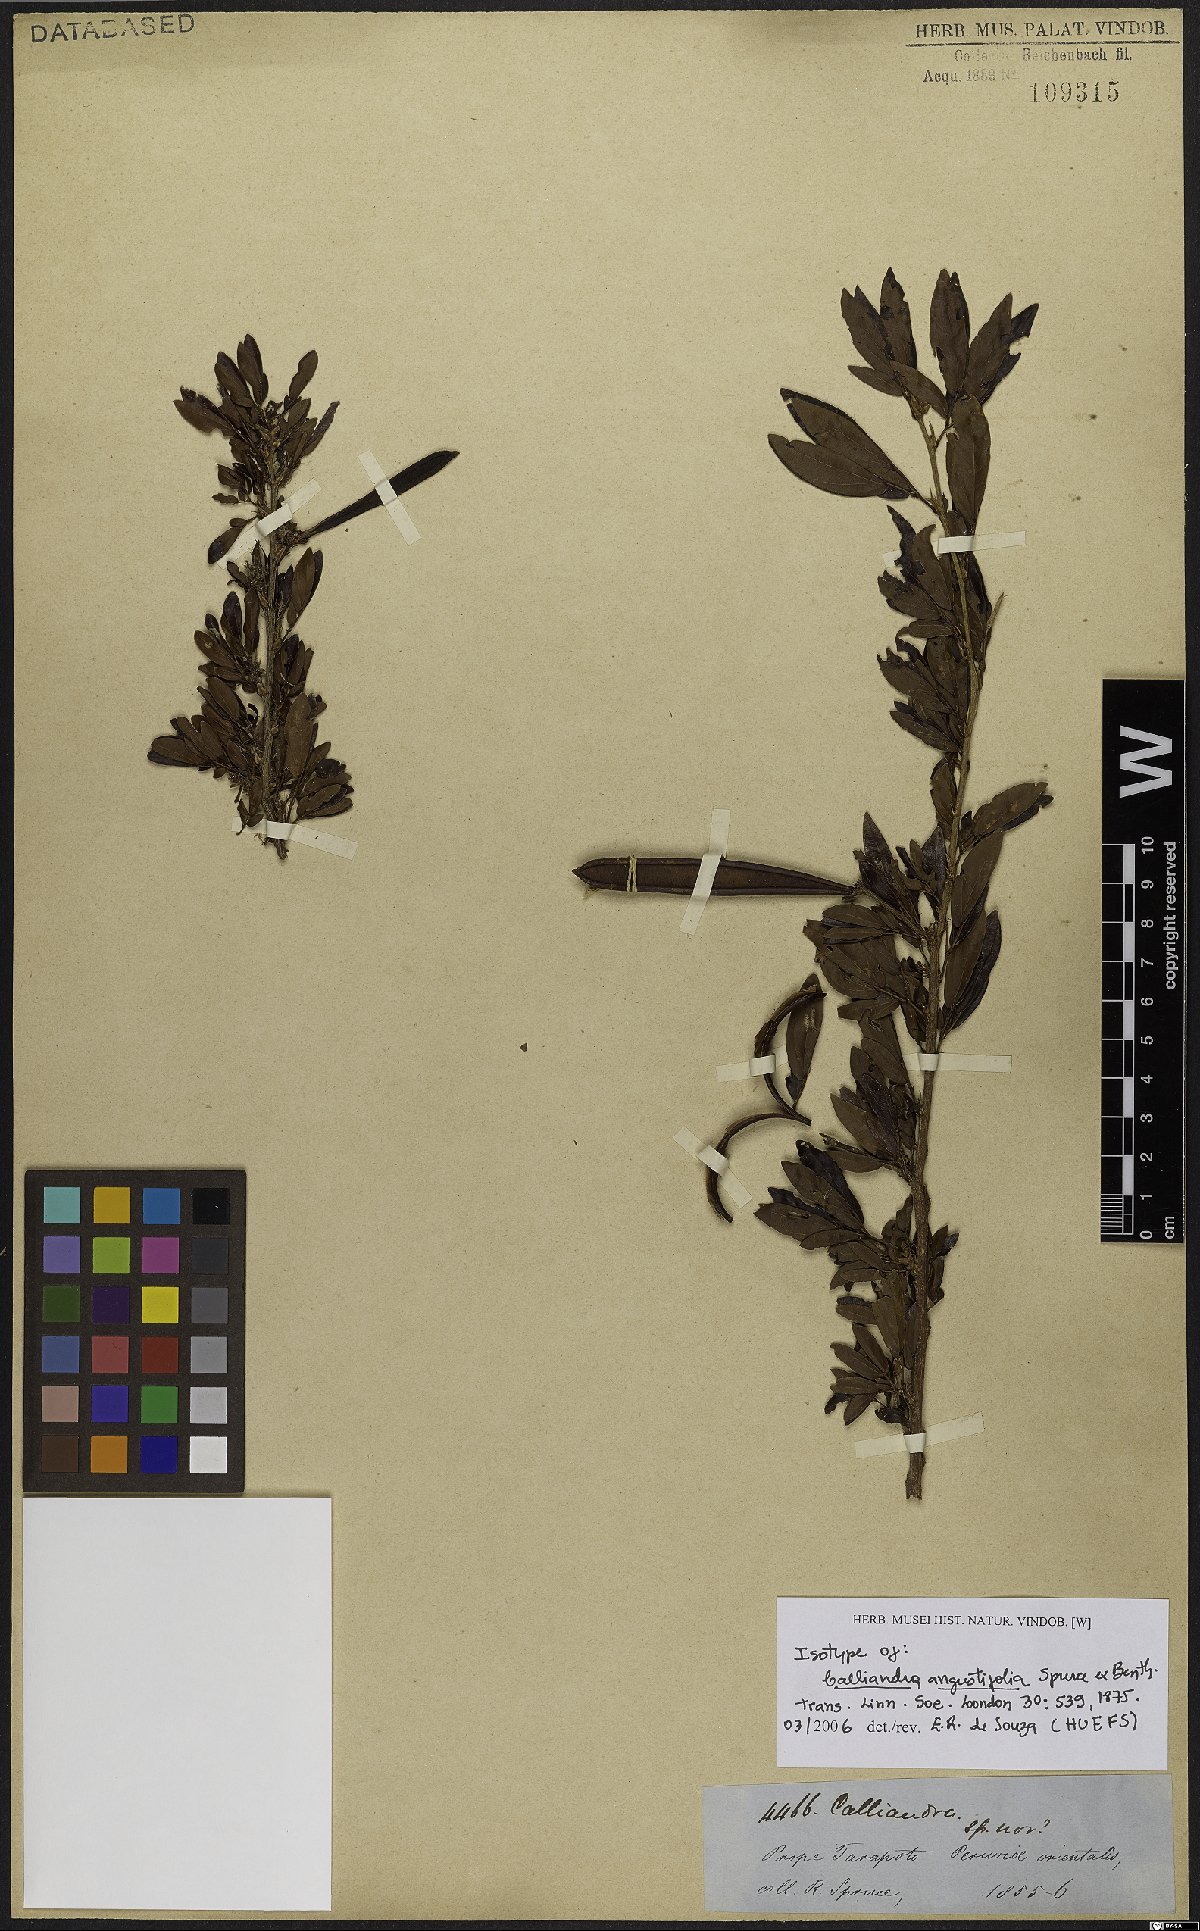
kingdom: Plantae
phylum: Tracheophyta
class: Magnoliopsida
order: Fabales
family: Fabaceae
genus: Calliandra
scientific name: Calliandra angustifolia
